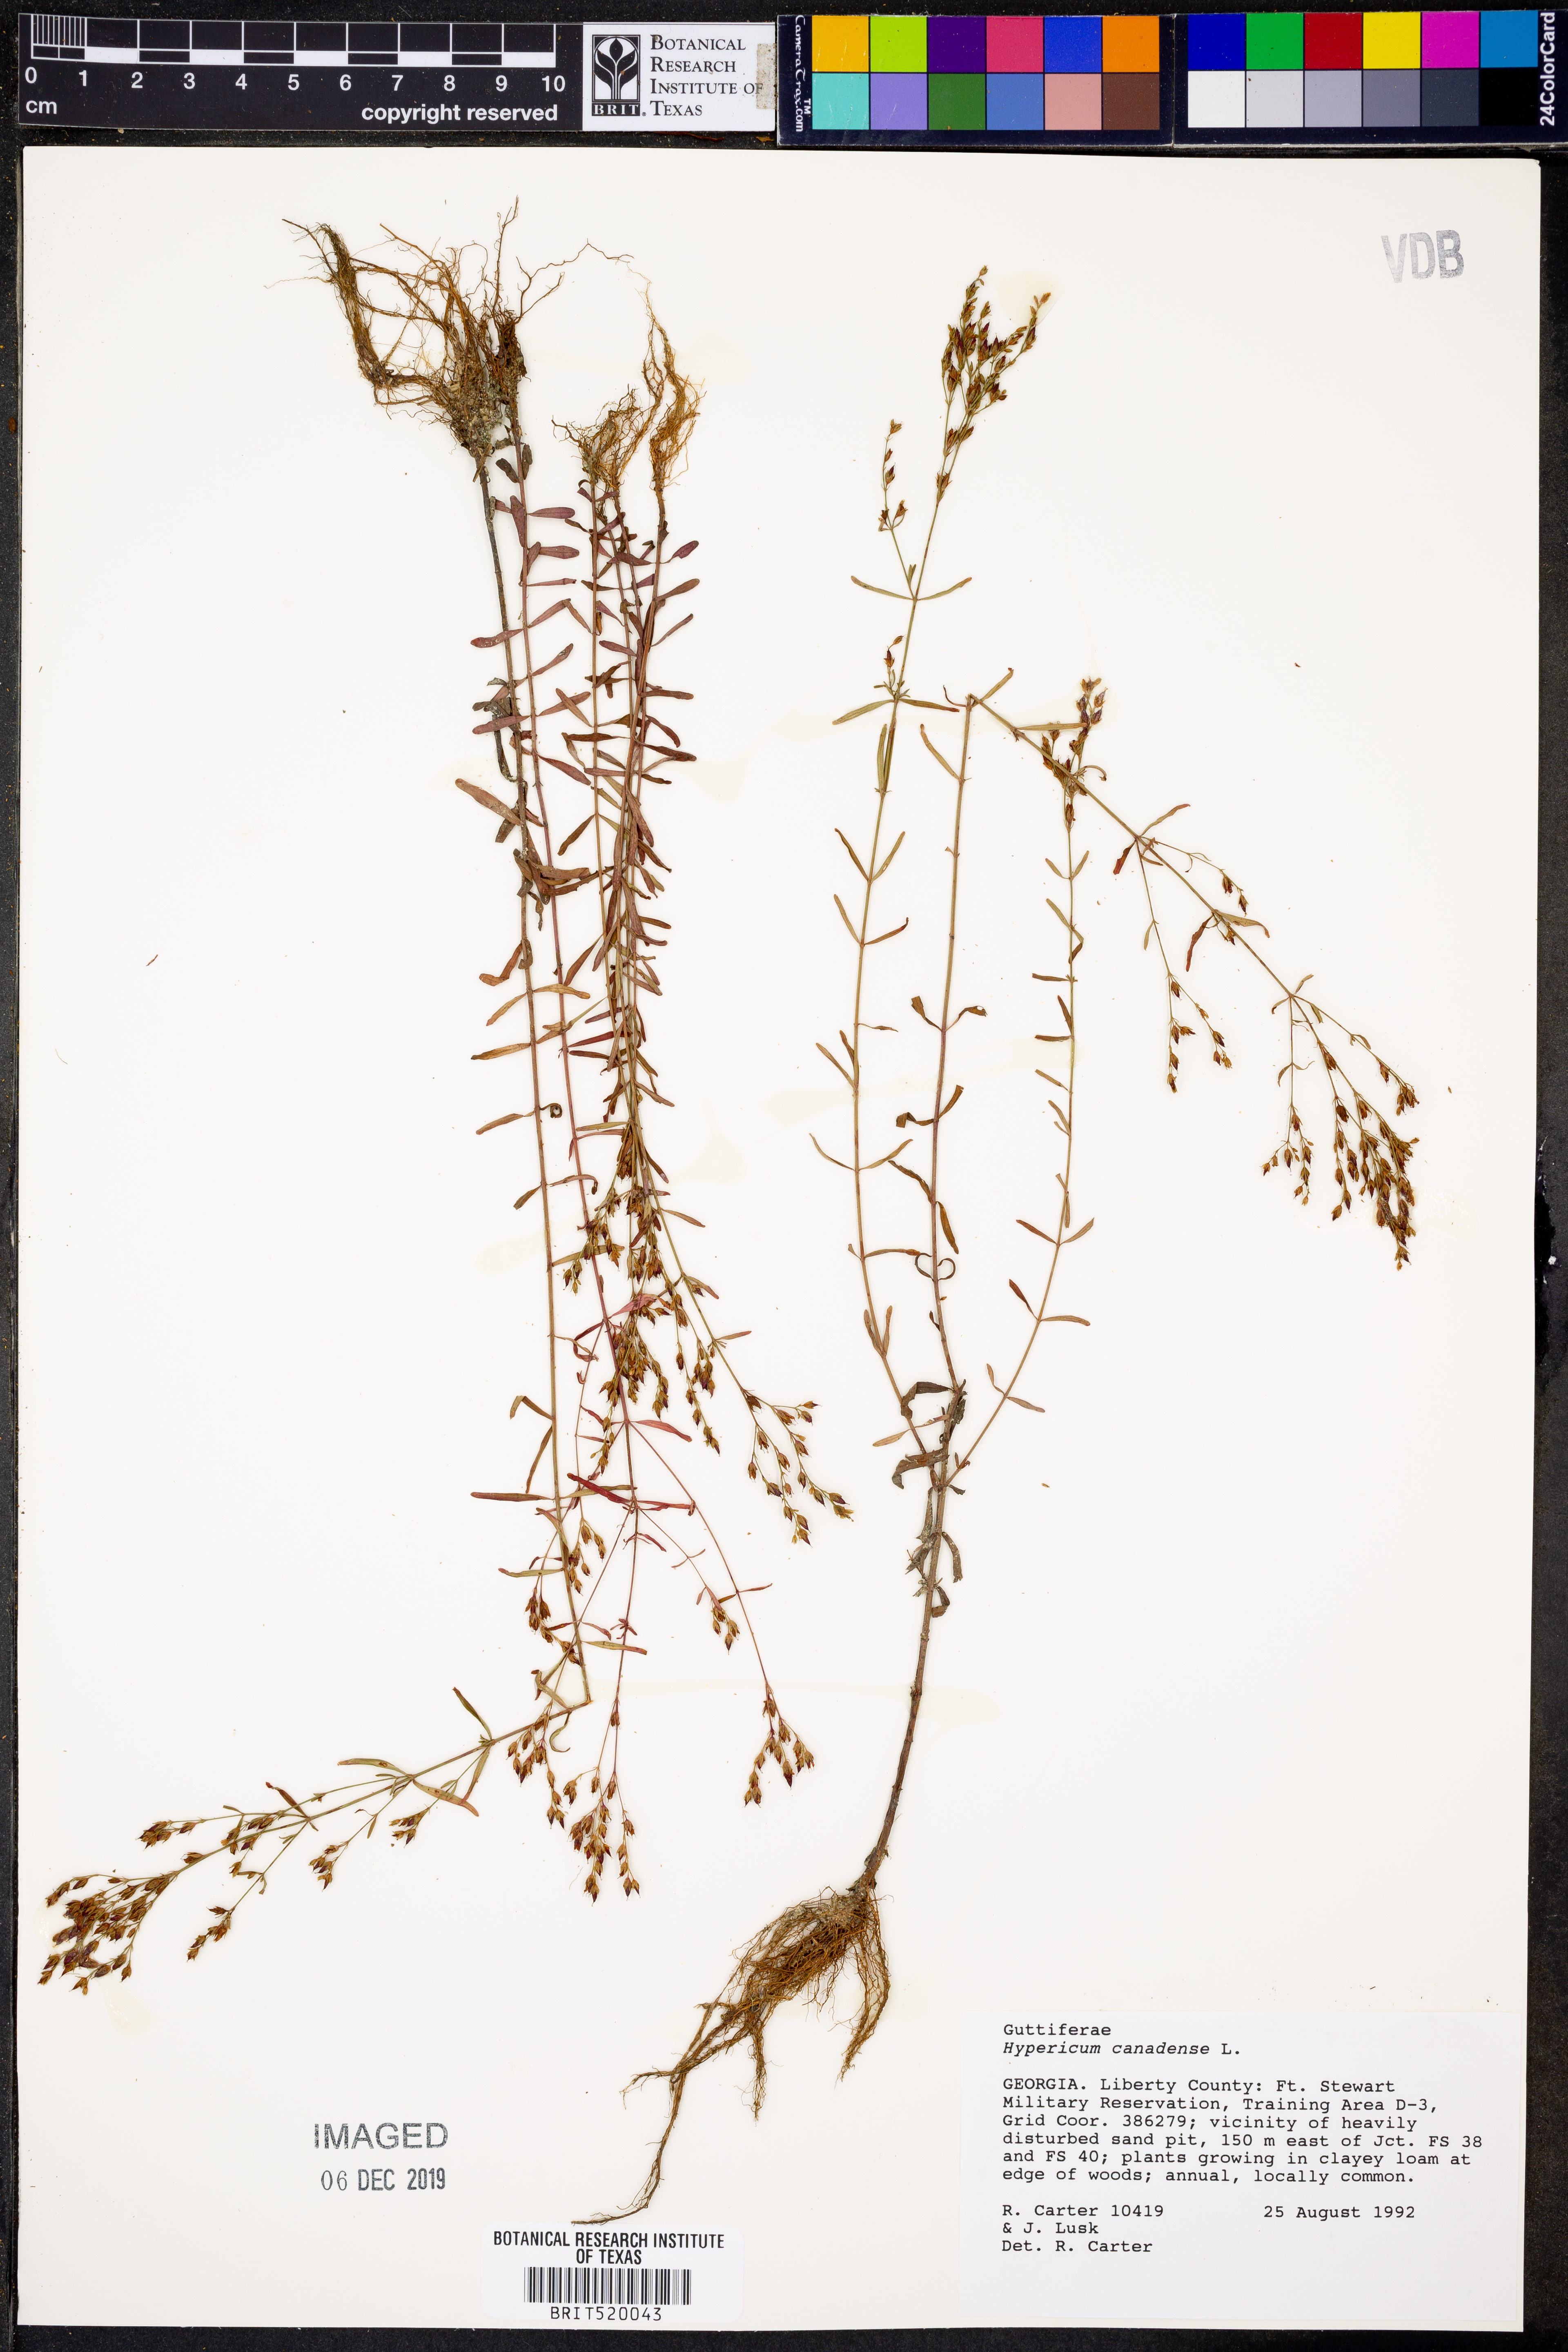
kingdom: Plantae
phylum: Tracheophyta
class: Magnoliopsida
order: Malpighiales
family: Hypericaceae
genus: Hypericum
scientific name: Hypericum canadense
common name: Irish st. john's-wort
